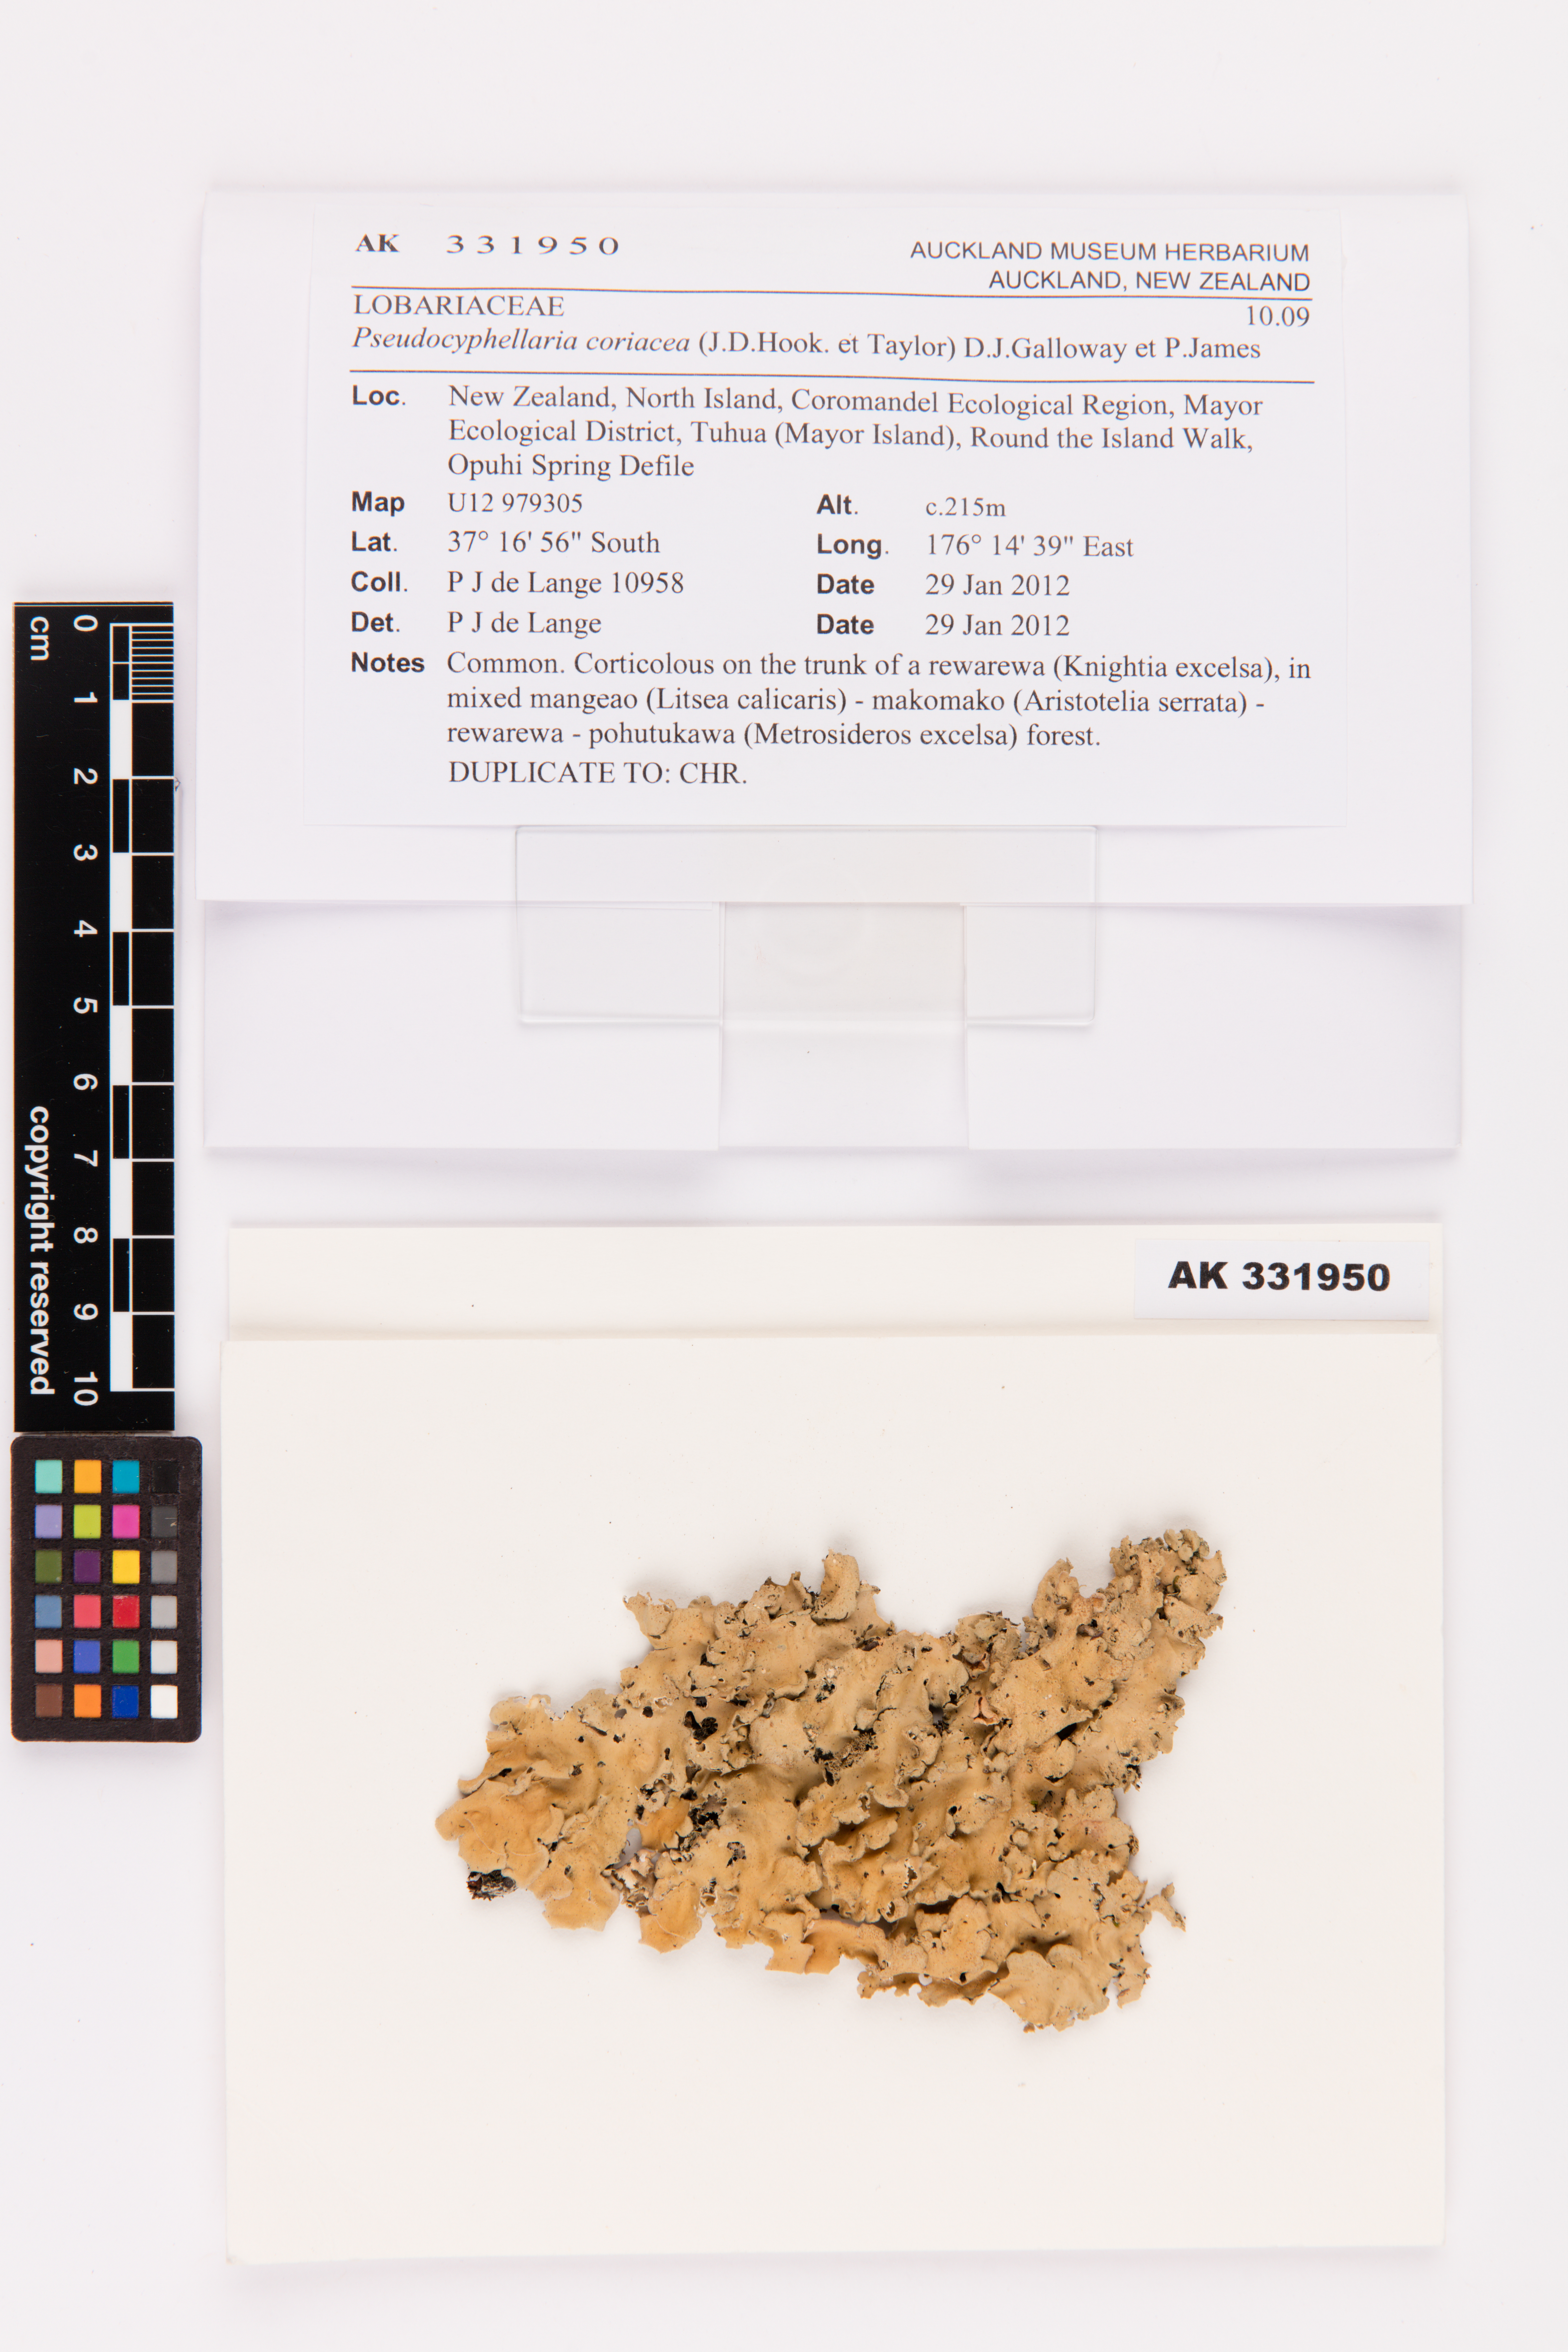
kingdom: Fungi
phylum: Ascomycota
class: Lecanoromycetes
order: Peltigerales
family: Lobariaceae
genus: Pseudocyphellaria
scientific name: Pseudocyphellaria coriacea
